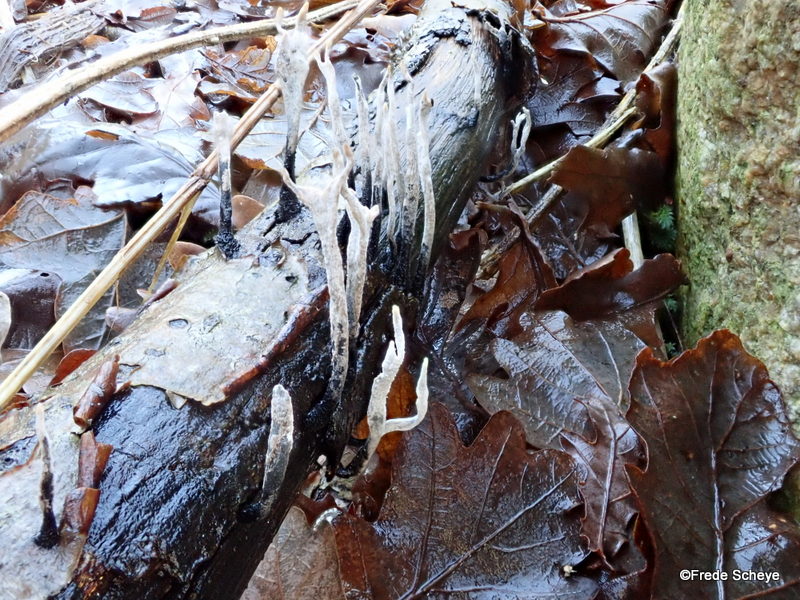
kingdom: Fungi
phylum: Ascomycota
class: Sordariomycetes
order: Xylariales
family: Xylariaceae
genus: Xylaria
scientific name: Xylaria hypoxylon
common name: grenet stødsvamp
